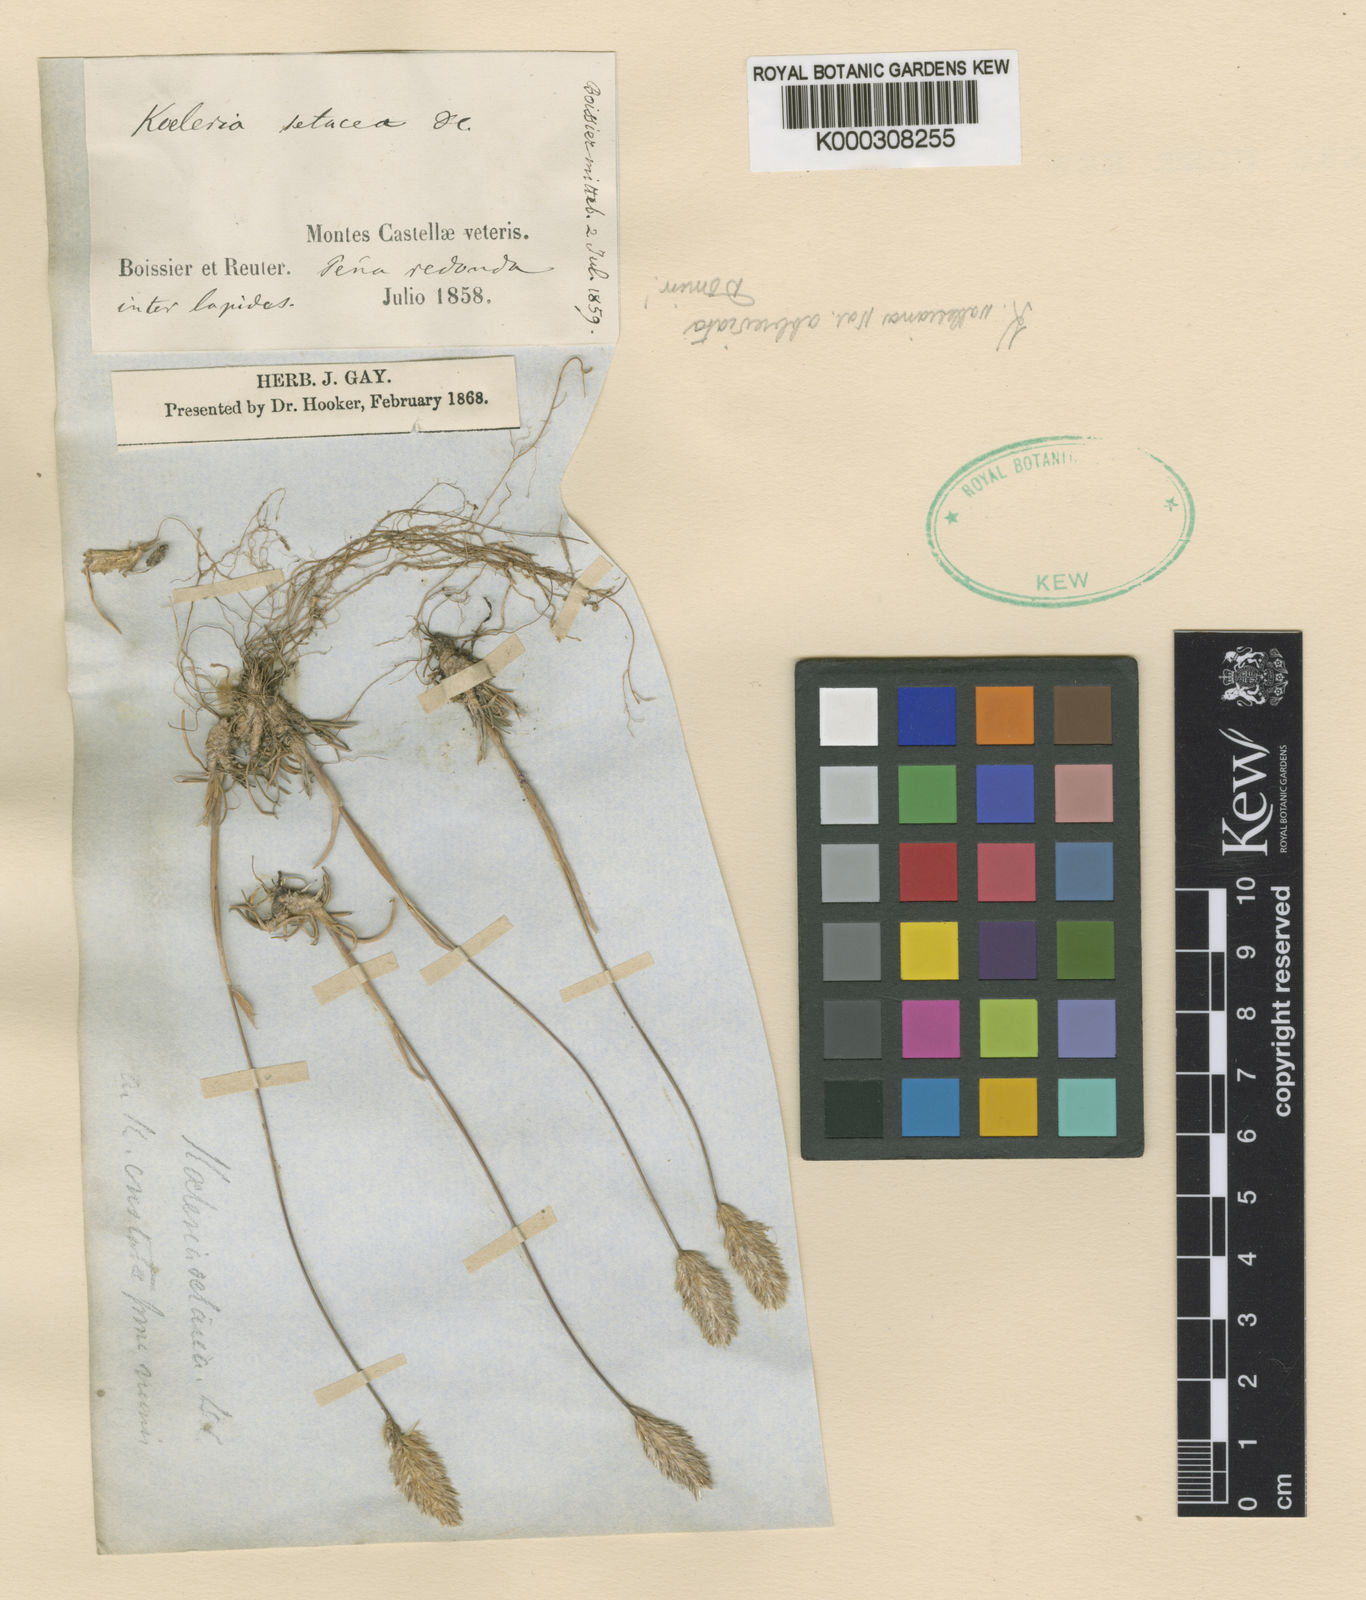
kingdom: Plantae
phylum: Tracheophyta
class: Liliopsida
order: Poales
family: Poaceae
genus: Koeleria
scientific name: Koeleria
